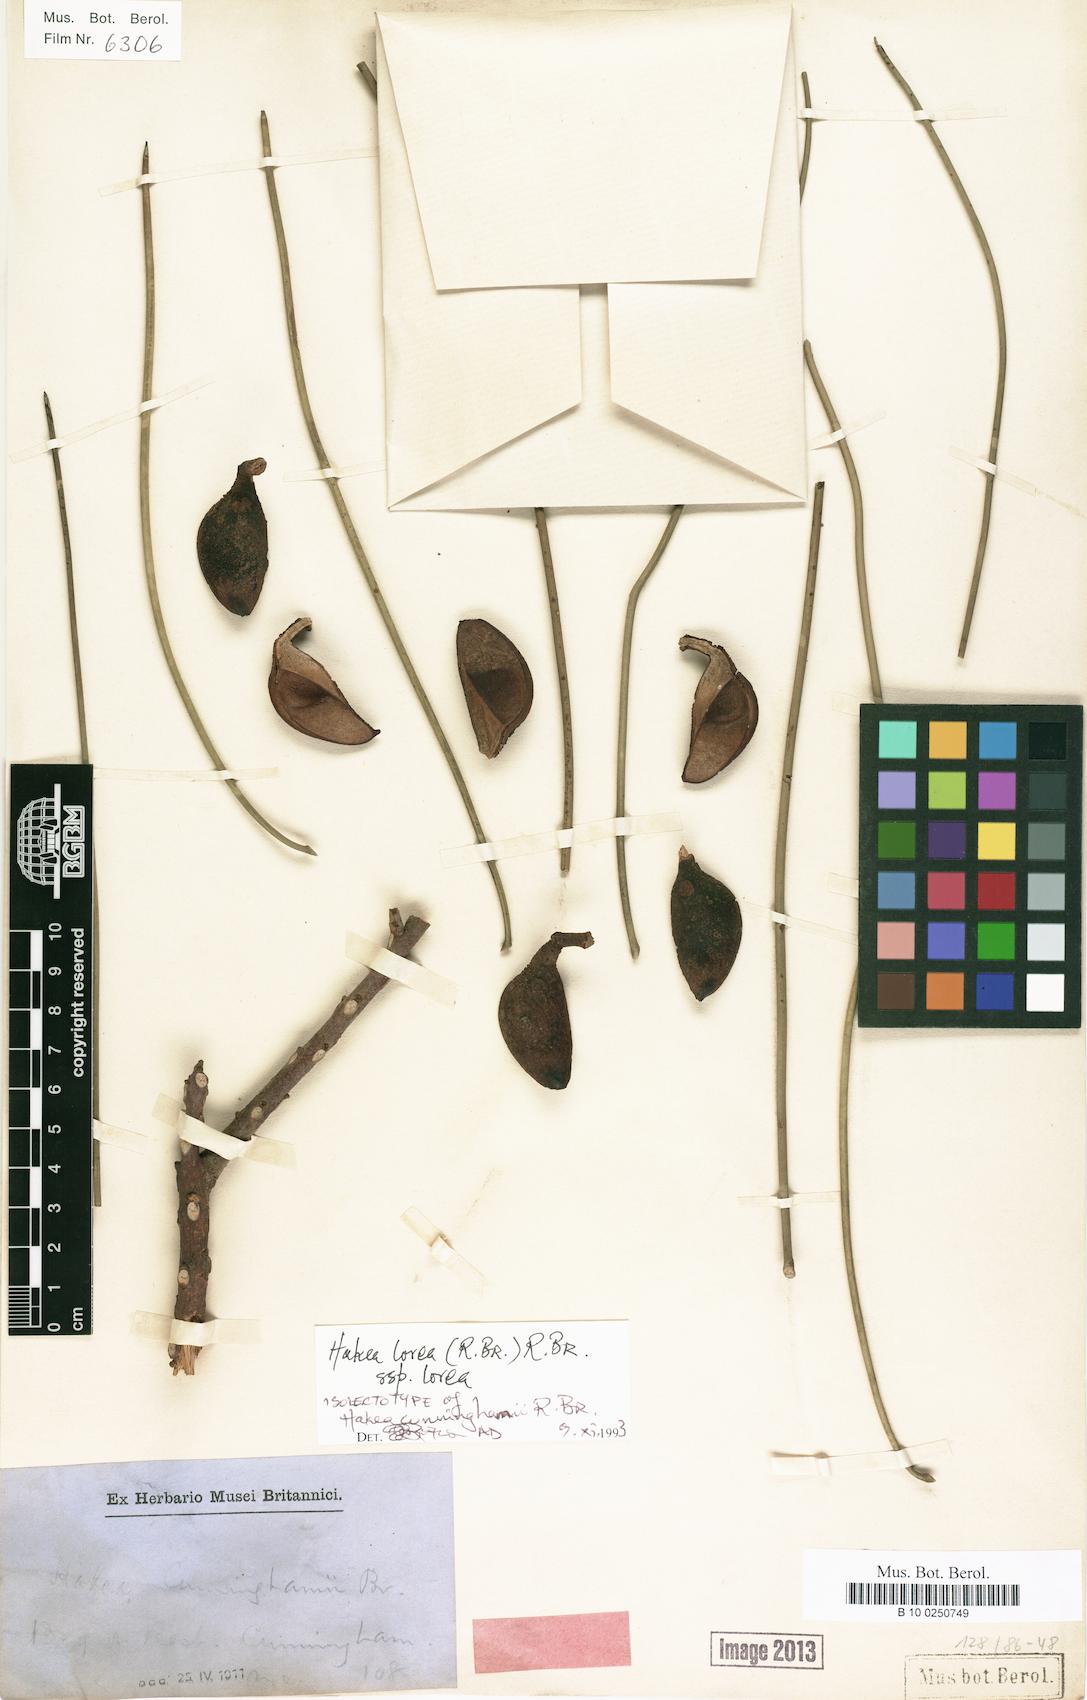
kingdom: Plantae
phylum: Tracheophyta
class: Magnoliopsida
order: Proteales
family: Proteaceae
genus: Hakea
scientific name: Hakea lorea
